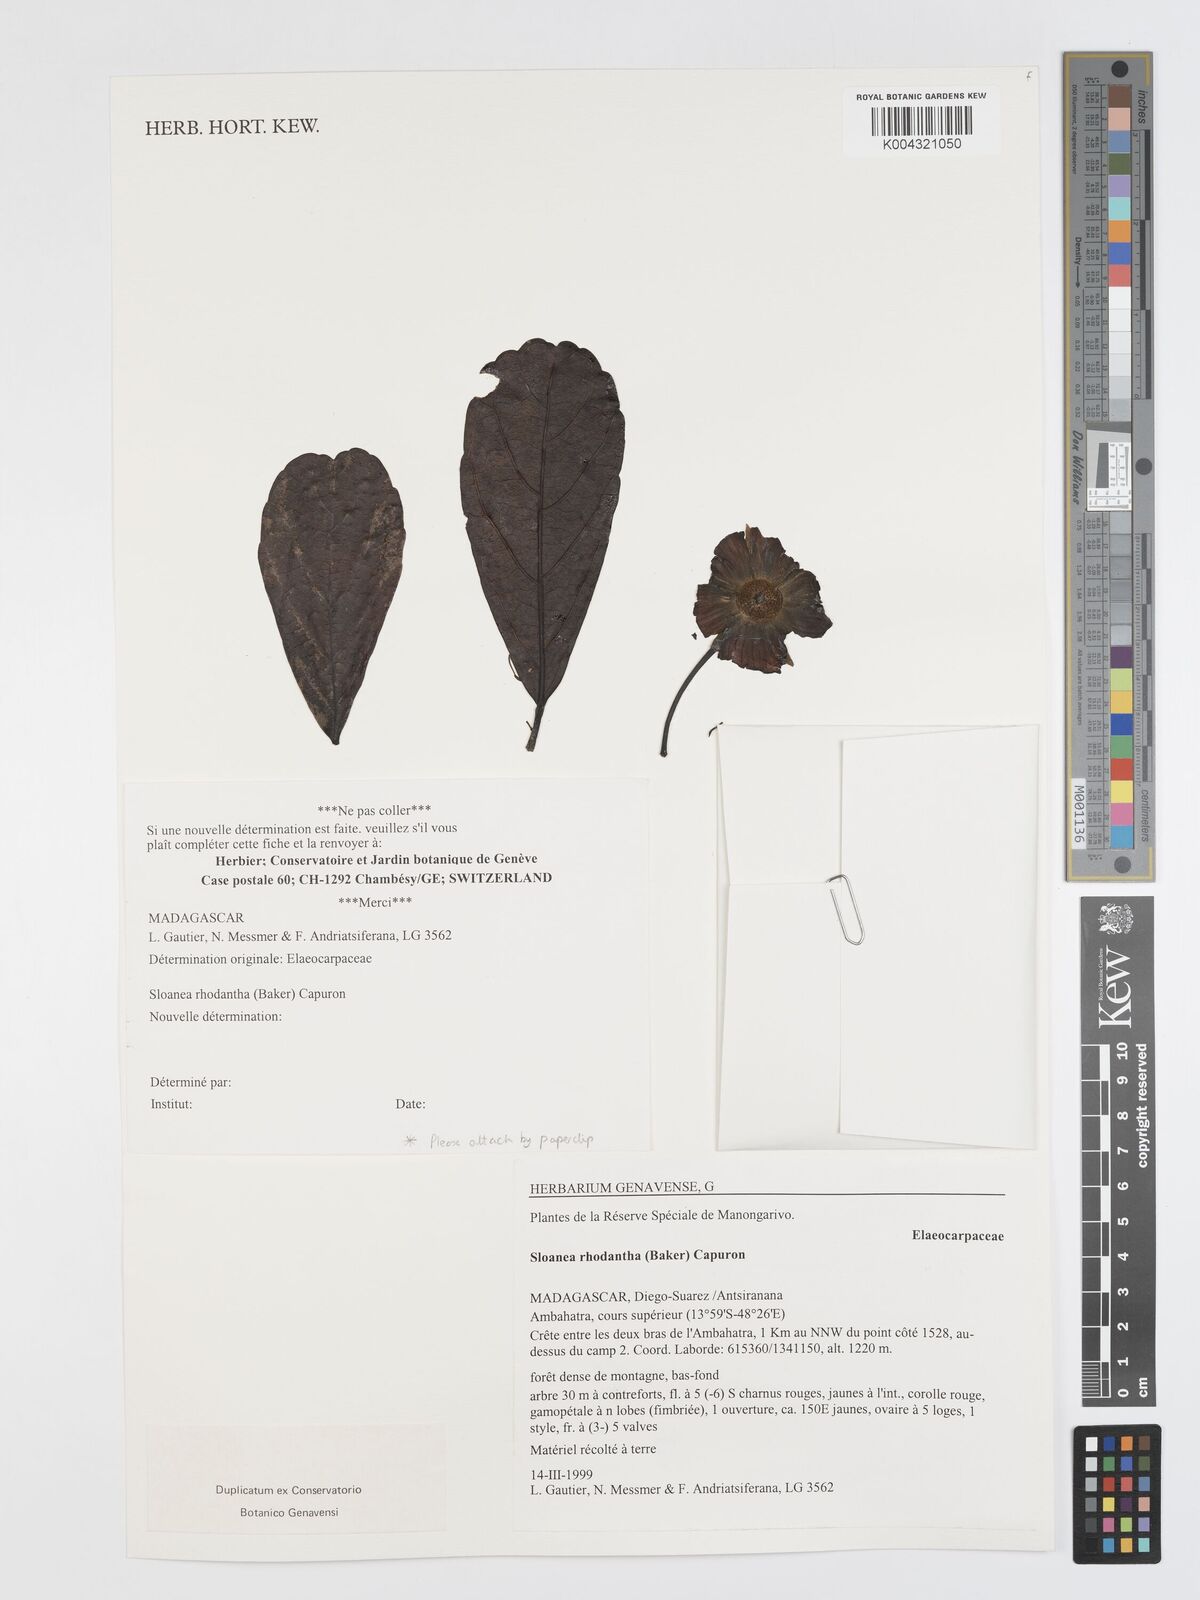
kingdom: Plantae
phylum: Tracheophyta
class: Magnoliopsida
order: Oxalidales
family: Elaeocarpaceae
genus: Sloanea
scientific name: Sloanea rhodantha
